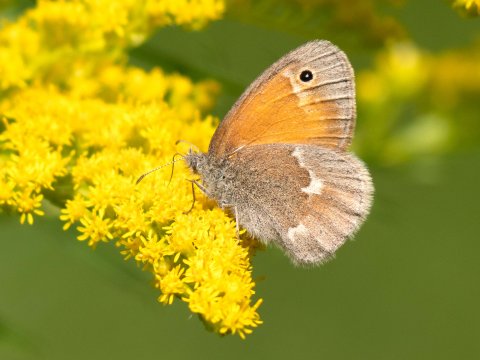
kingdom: Animalia
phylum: Arthropoda
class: Insecta
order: Lepidoptera
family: Nymphalidae
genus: Coenonympha
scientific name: Coenonympha california
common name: California Ringlet
